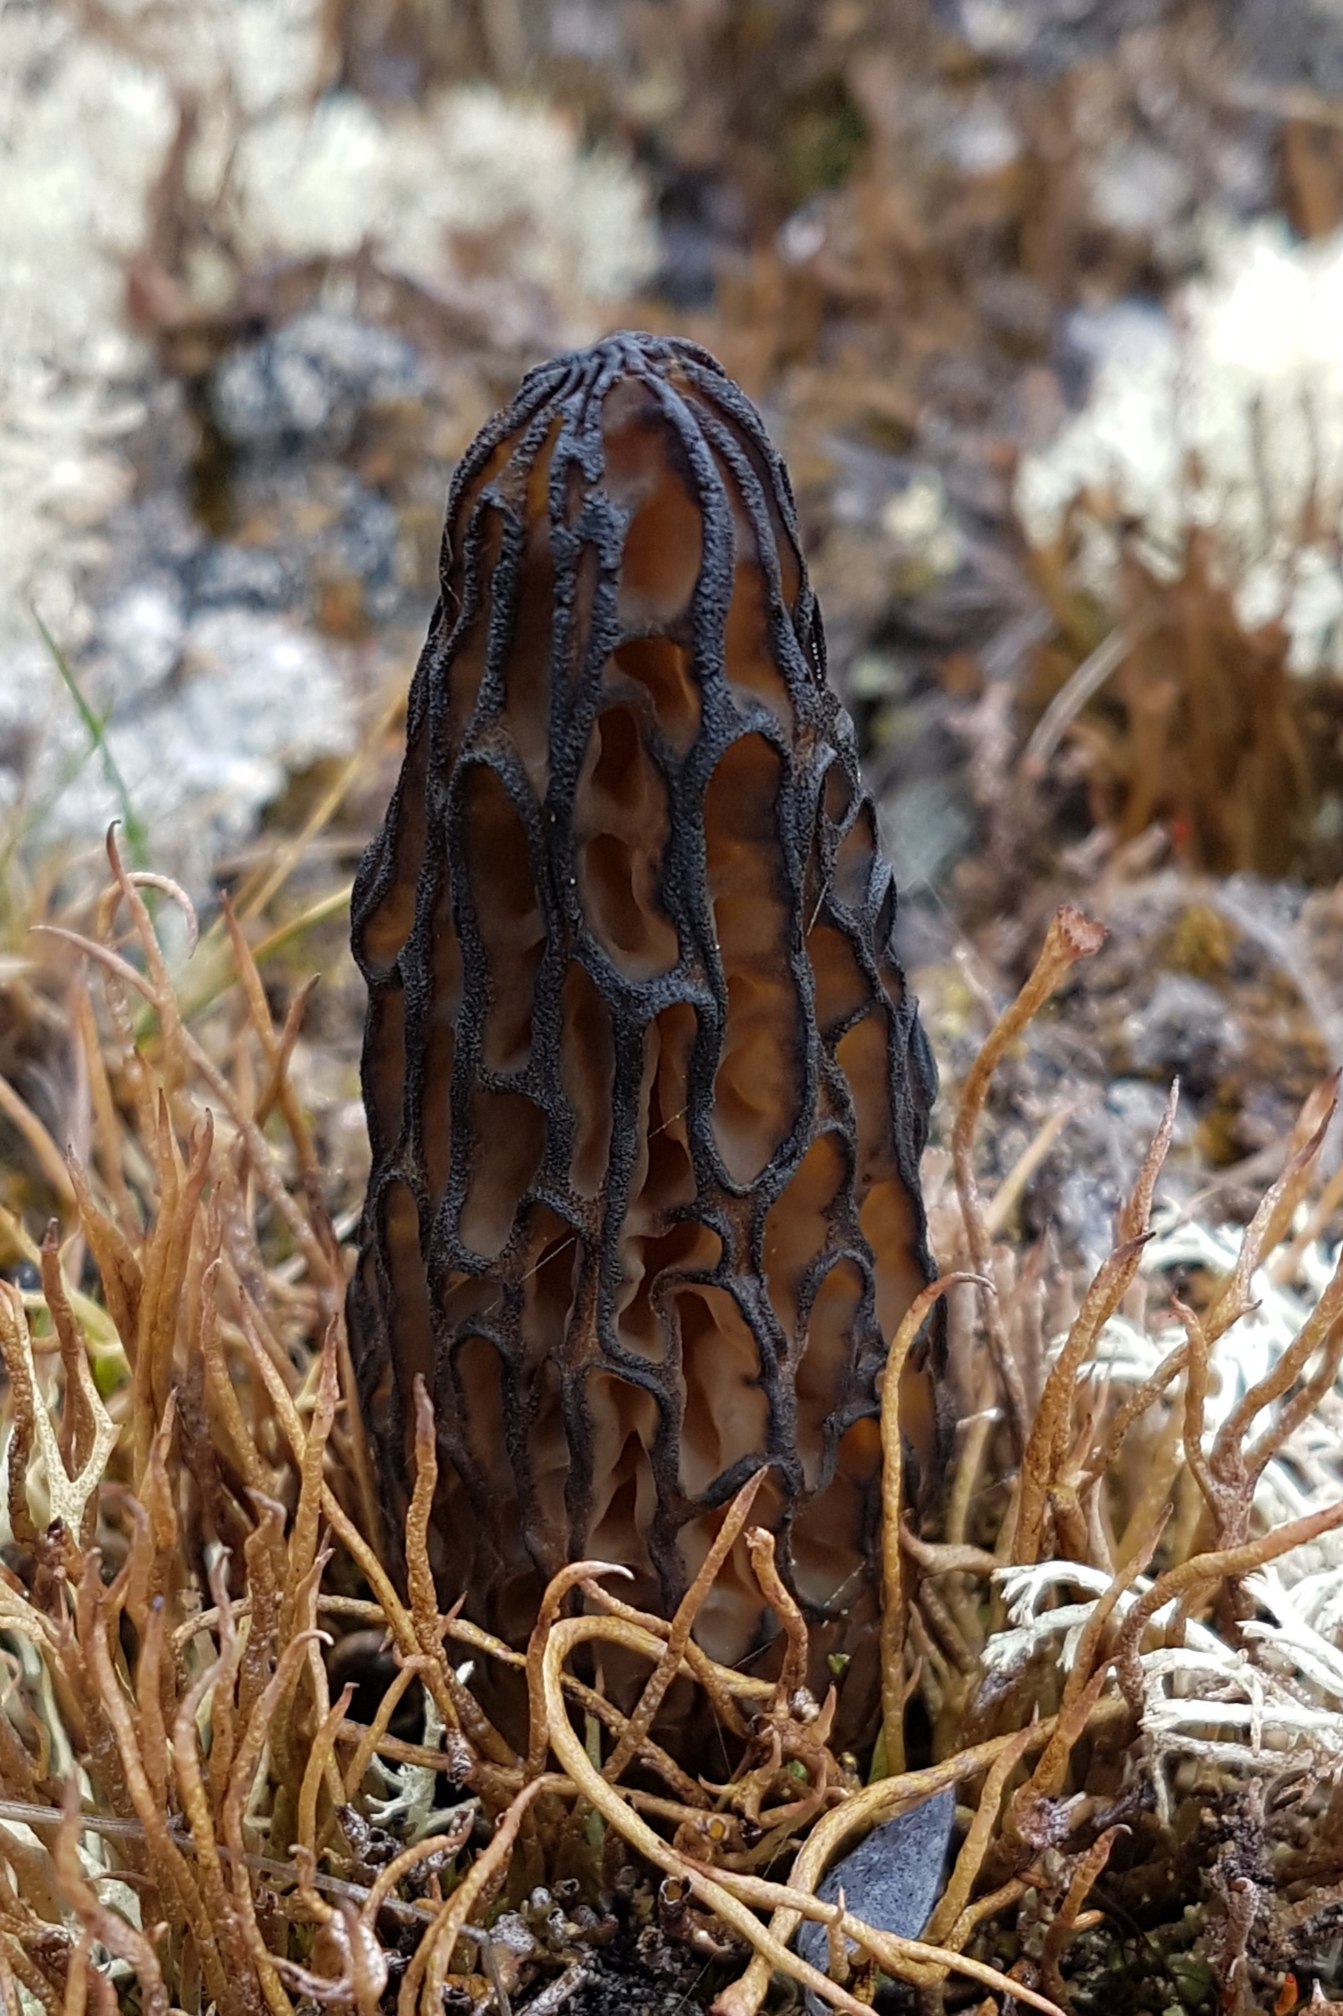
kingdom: Fungi
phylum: Ascomycota
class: Pezizomycetes
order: Pezizales
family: Morchellaceae
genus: Morchella
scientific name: Morchella esculenta
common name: Morel
